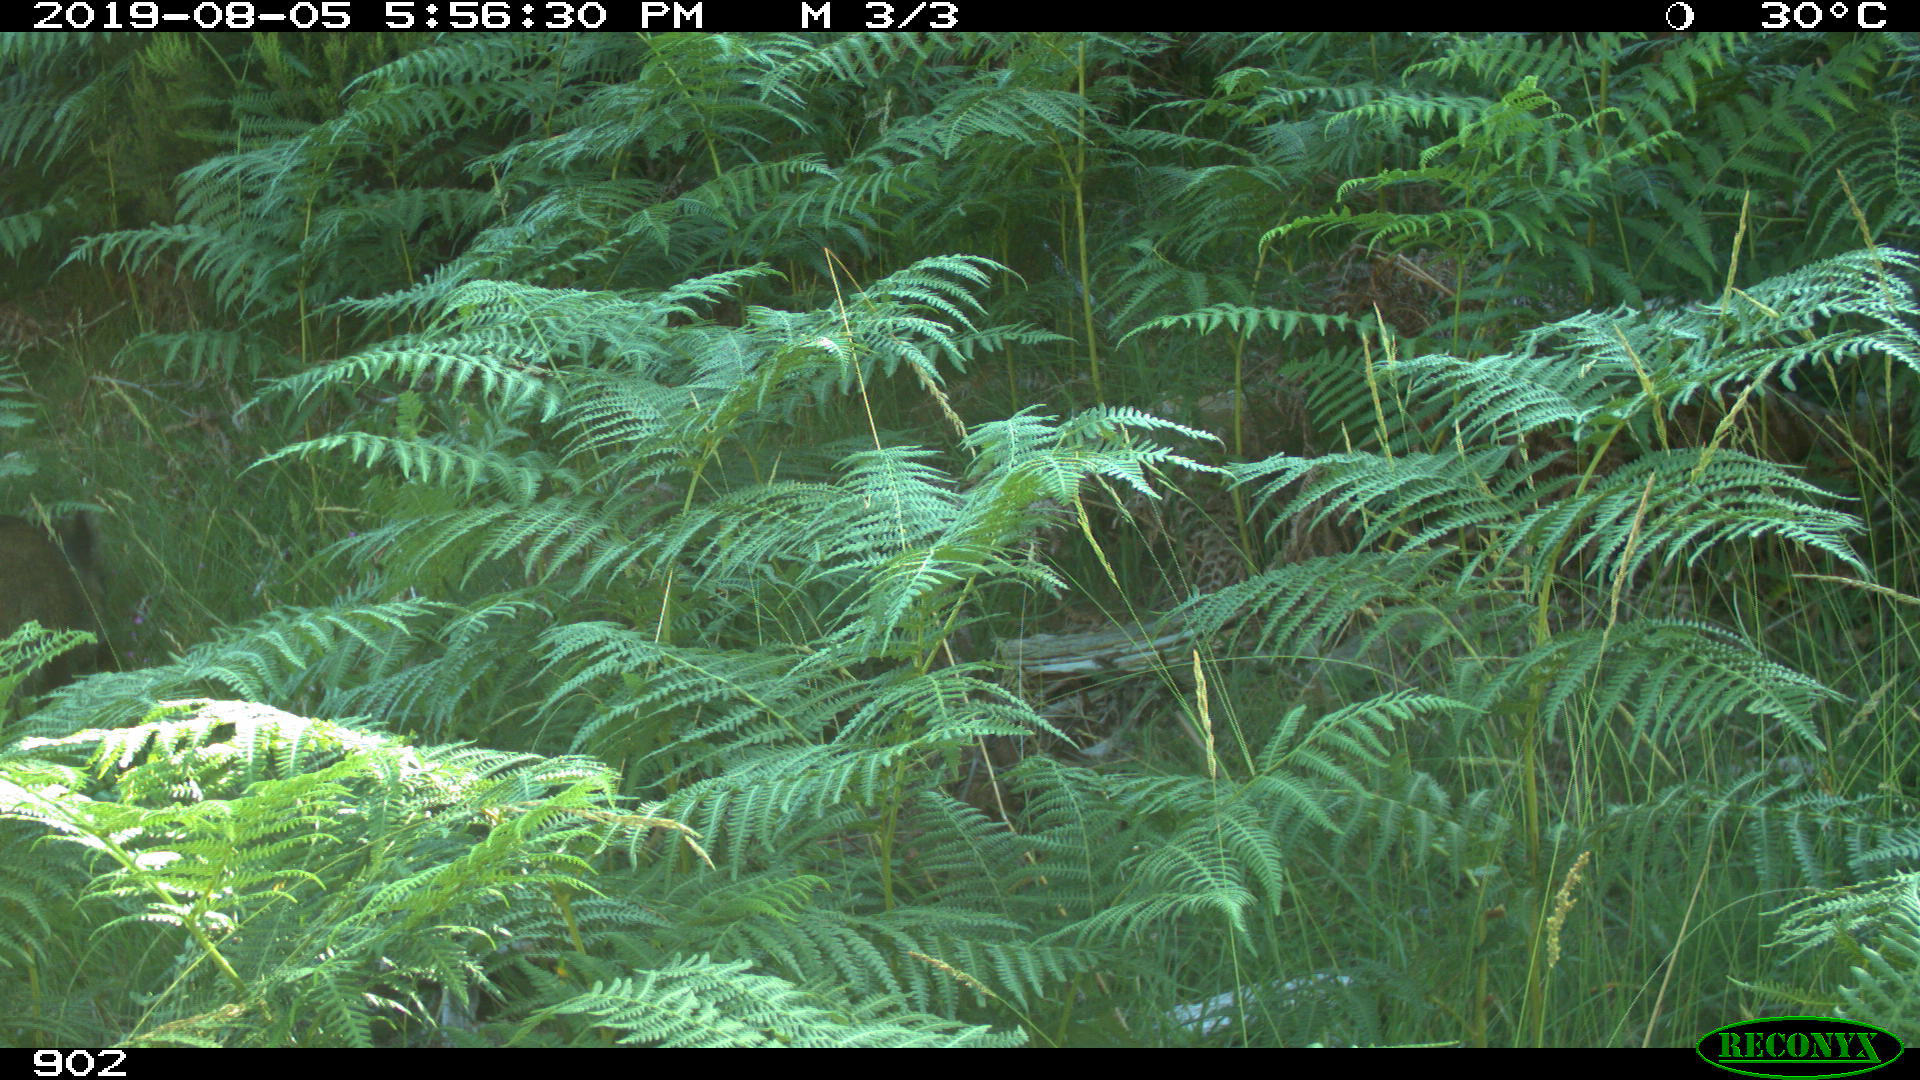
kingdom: Animalia
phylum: Chordata
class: Mammalia
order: Artiodactyla
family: Suidae
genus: Sus
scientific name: Sus scrofa
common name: Wild boar
